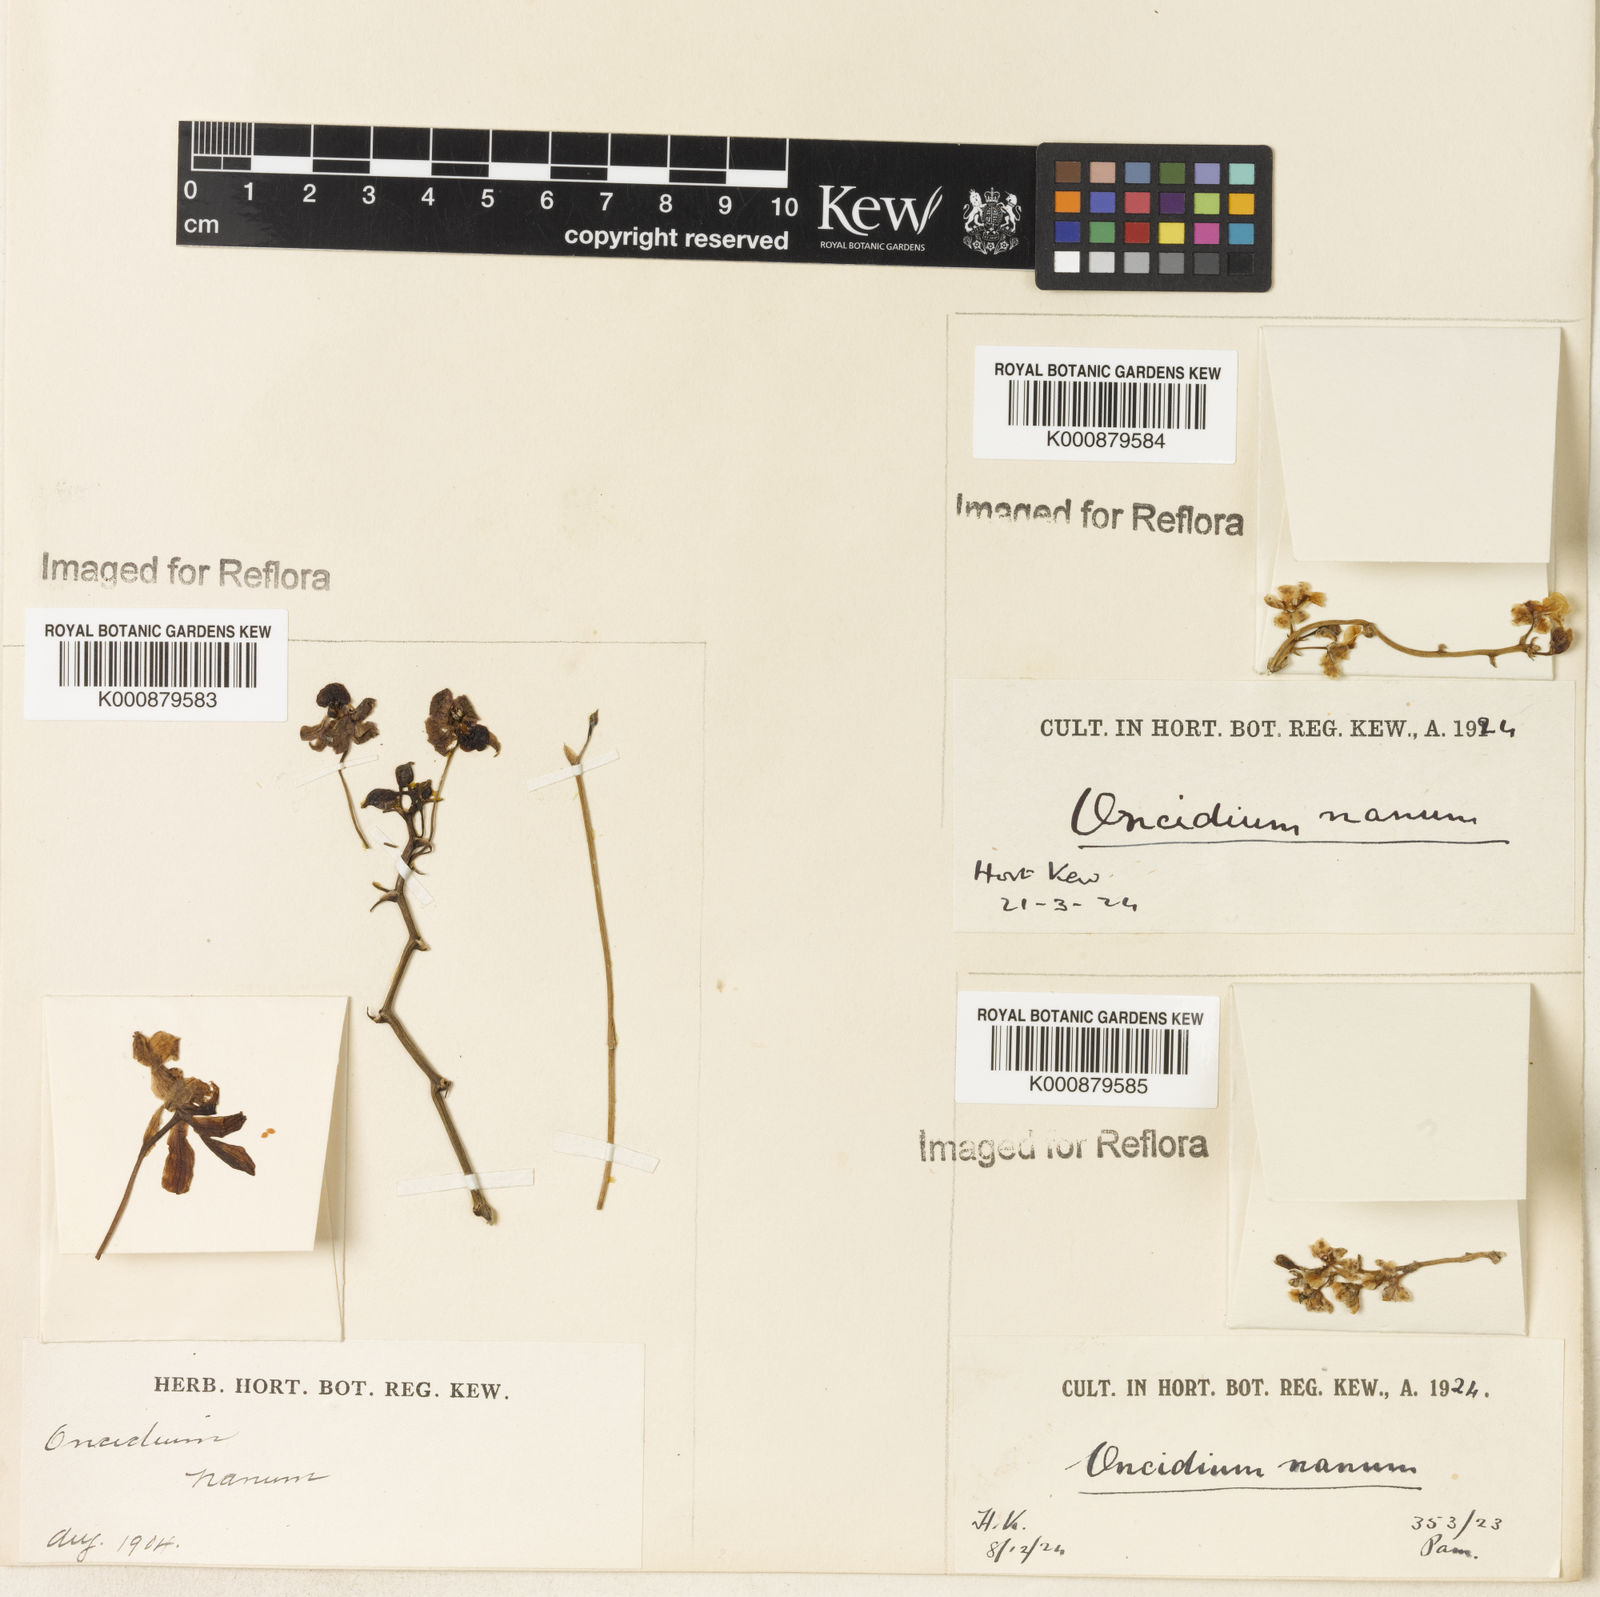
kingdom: Plantae
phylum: Tracheophyta
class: Liliopsida
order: Asparagales
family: Orchidaceae
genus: Trichocentrum
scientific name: Trichocentrum nanum
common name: Mule-ear orchid
